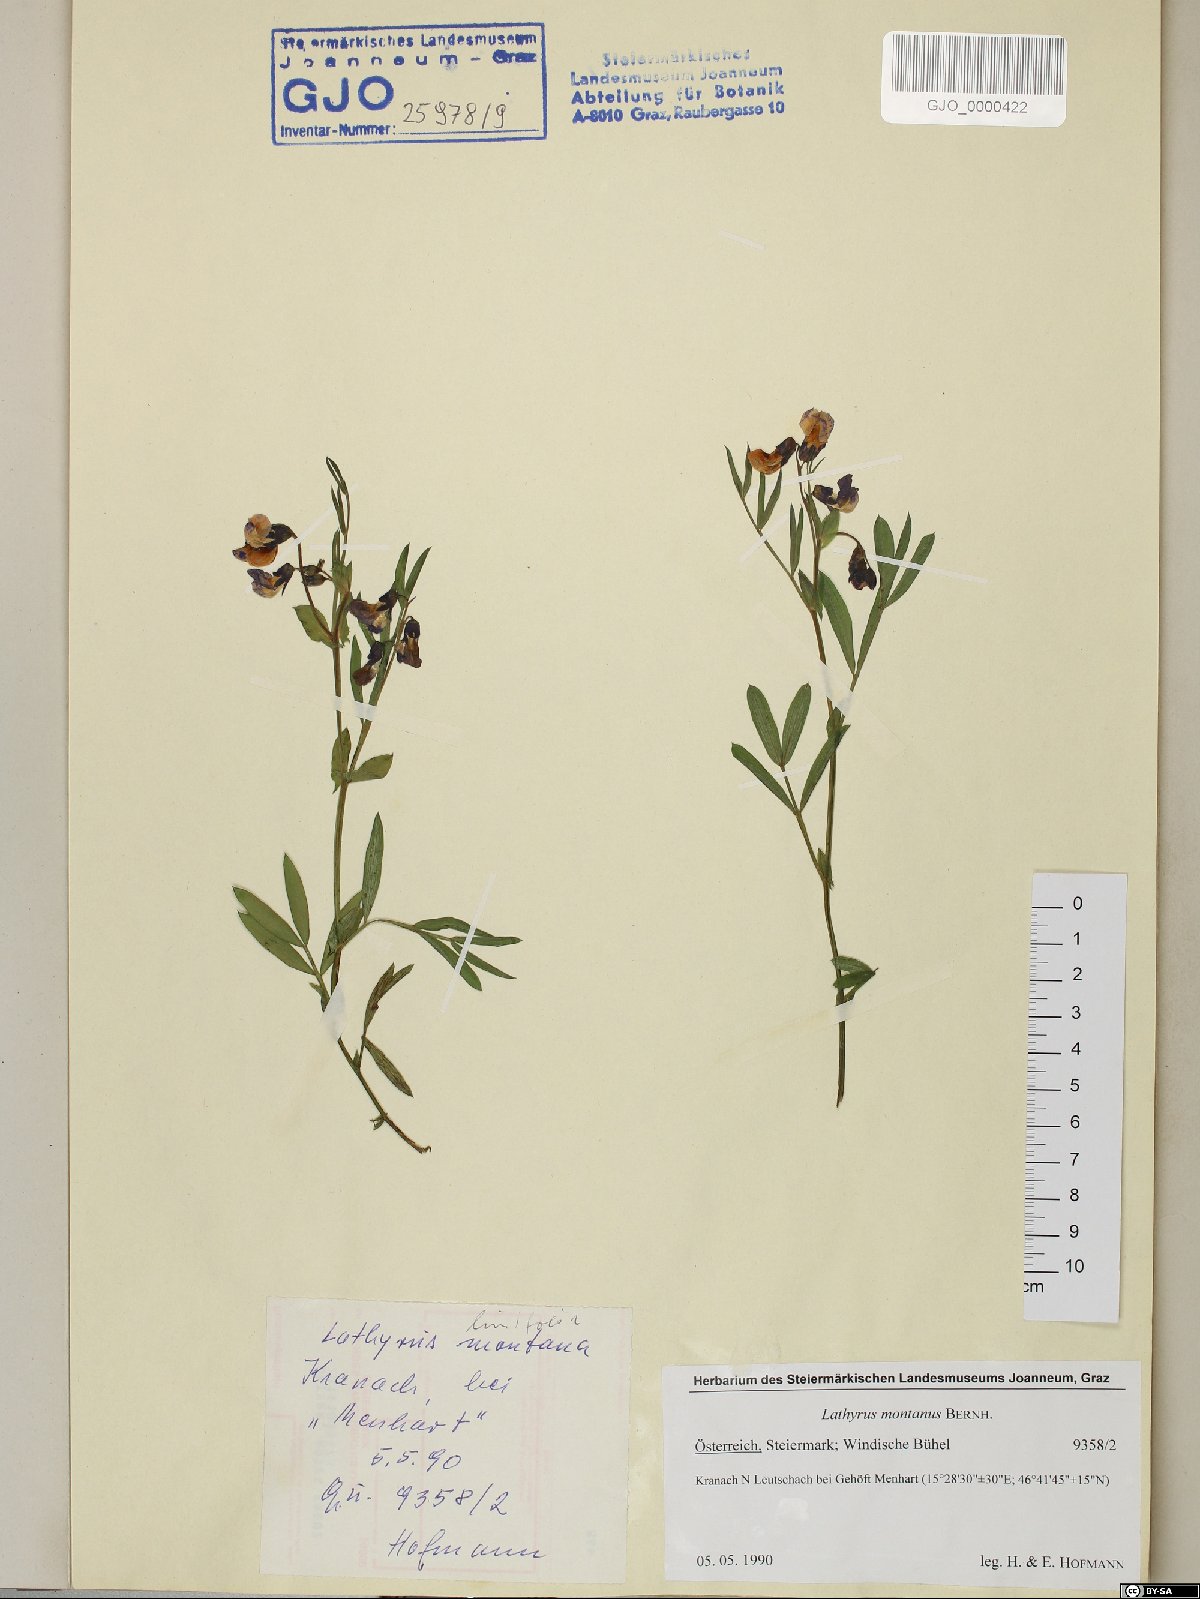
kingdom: Plantae
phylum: Tracheophyta
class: Magnoliopsida
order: Fabales
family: Fabaceae
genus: Lathyrus
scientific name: Lathyrus linifolius
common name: Bitter-vetch
